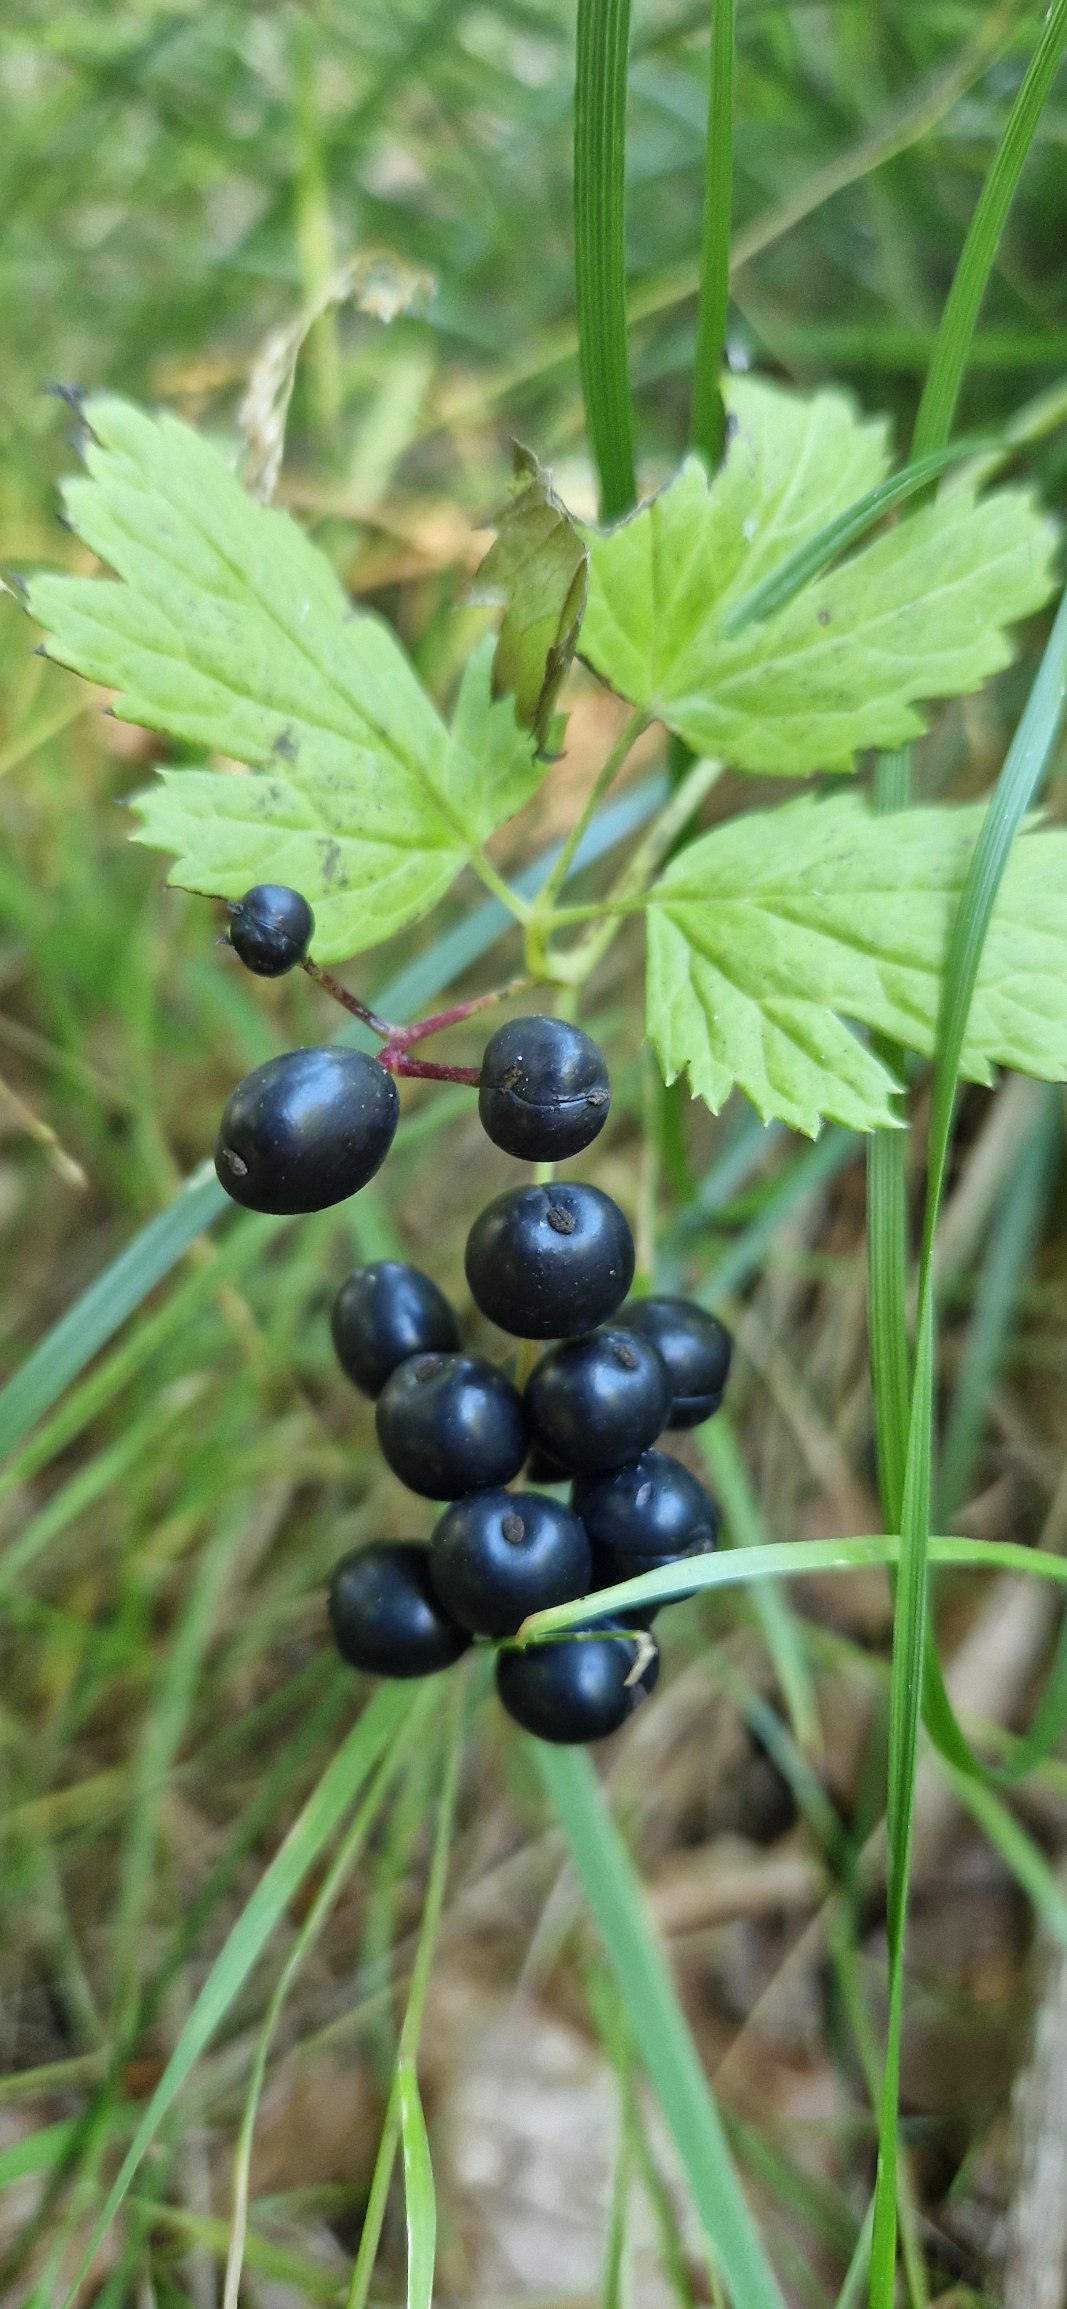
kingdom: Plantae
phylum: Tracheophyta
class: Magnoliopsida
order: Ranunculales
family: Ranunculaceae
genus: Actaea
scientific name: Actaea spicata
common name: Druemunke
